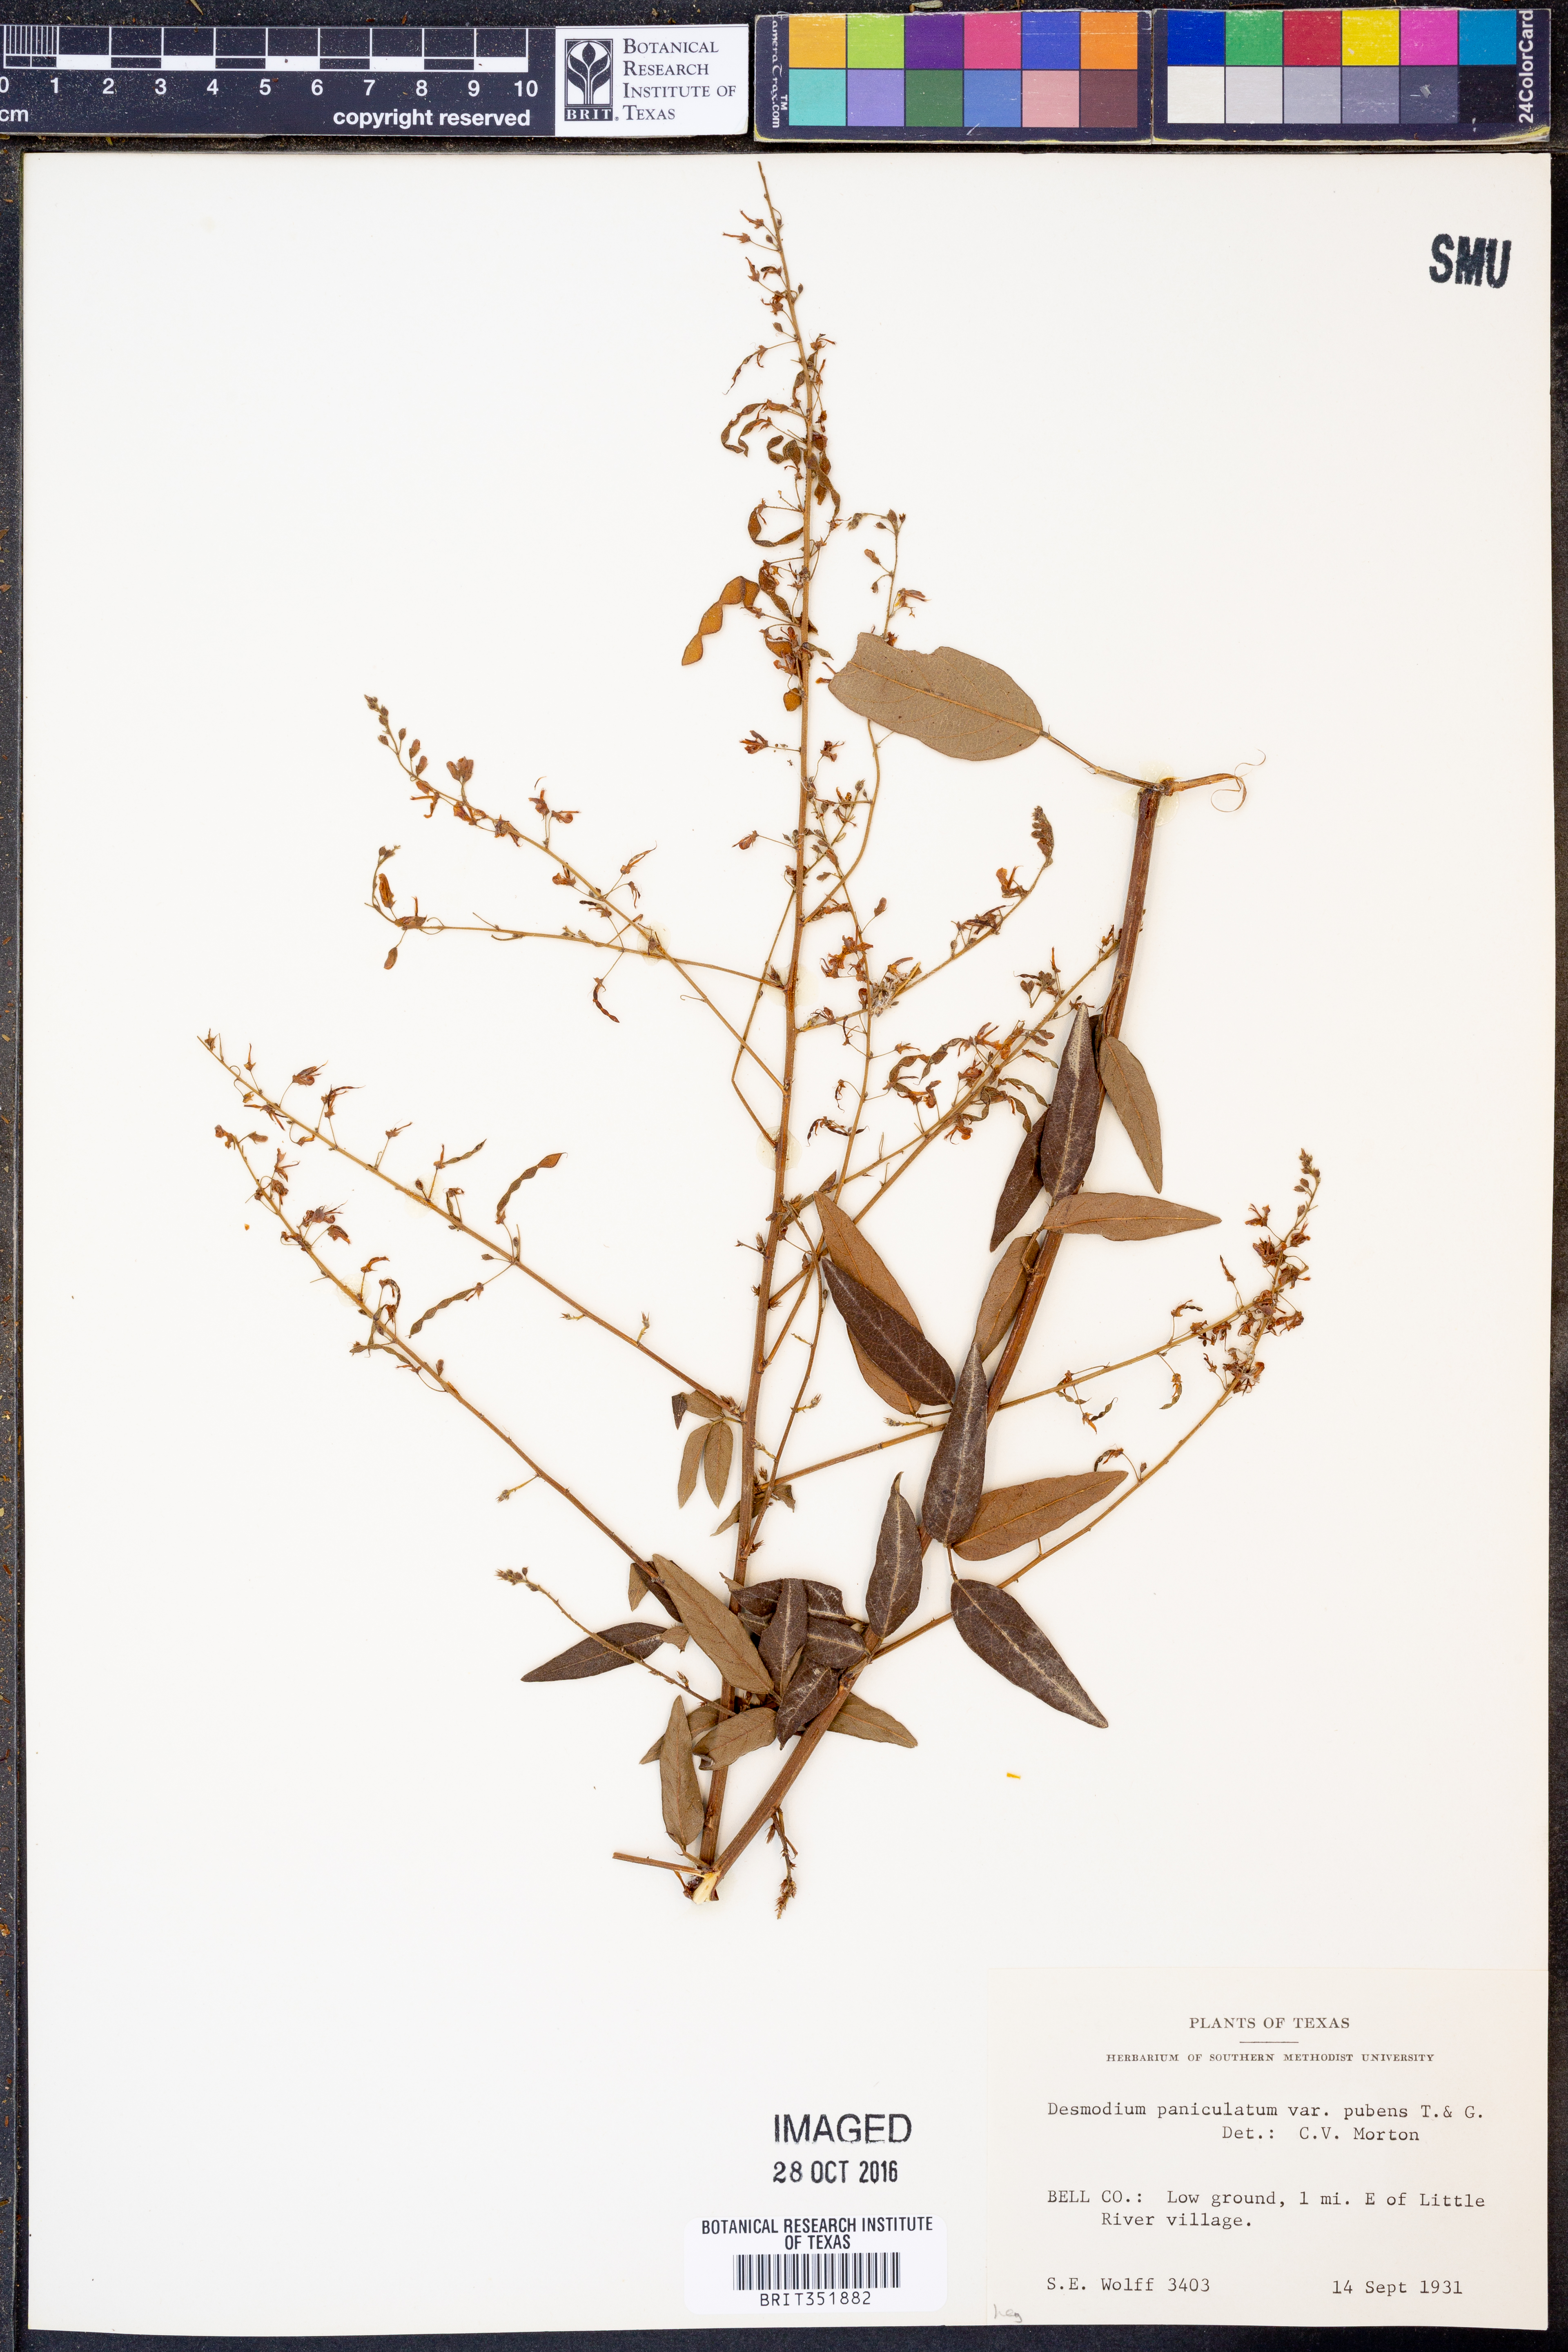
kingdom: Plantae
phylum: Tracheophyta
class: Magnoliopsida
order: Fabales
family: Fabaceae
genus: Desmodium
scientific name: Desmodium paniculatum
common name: Panicled tick-clover
